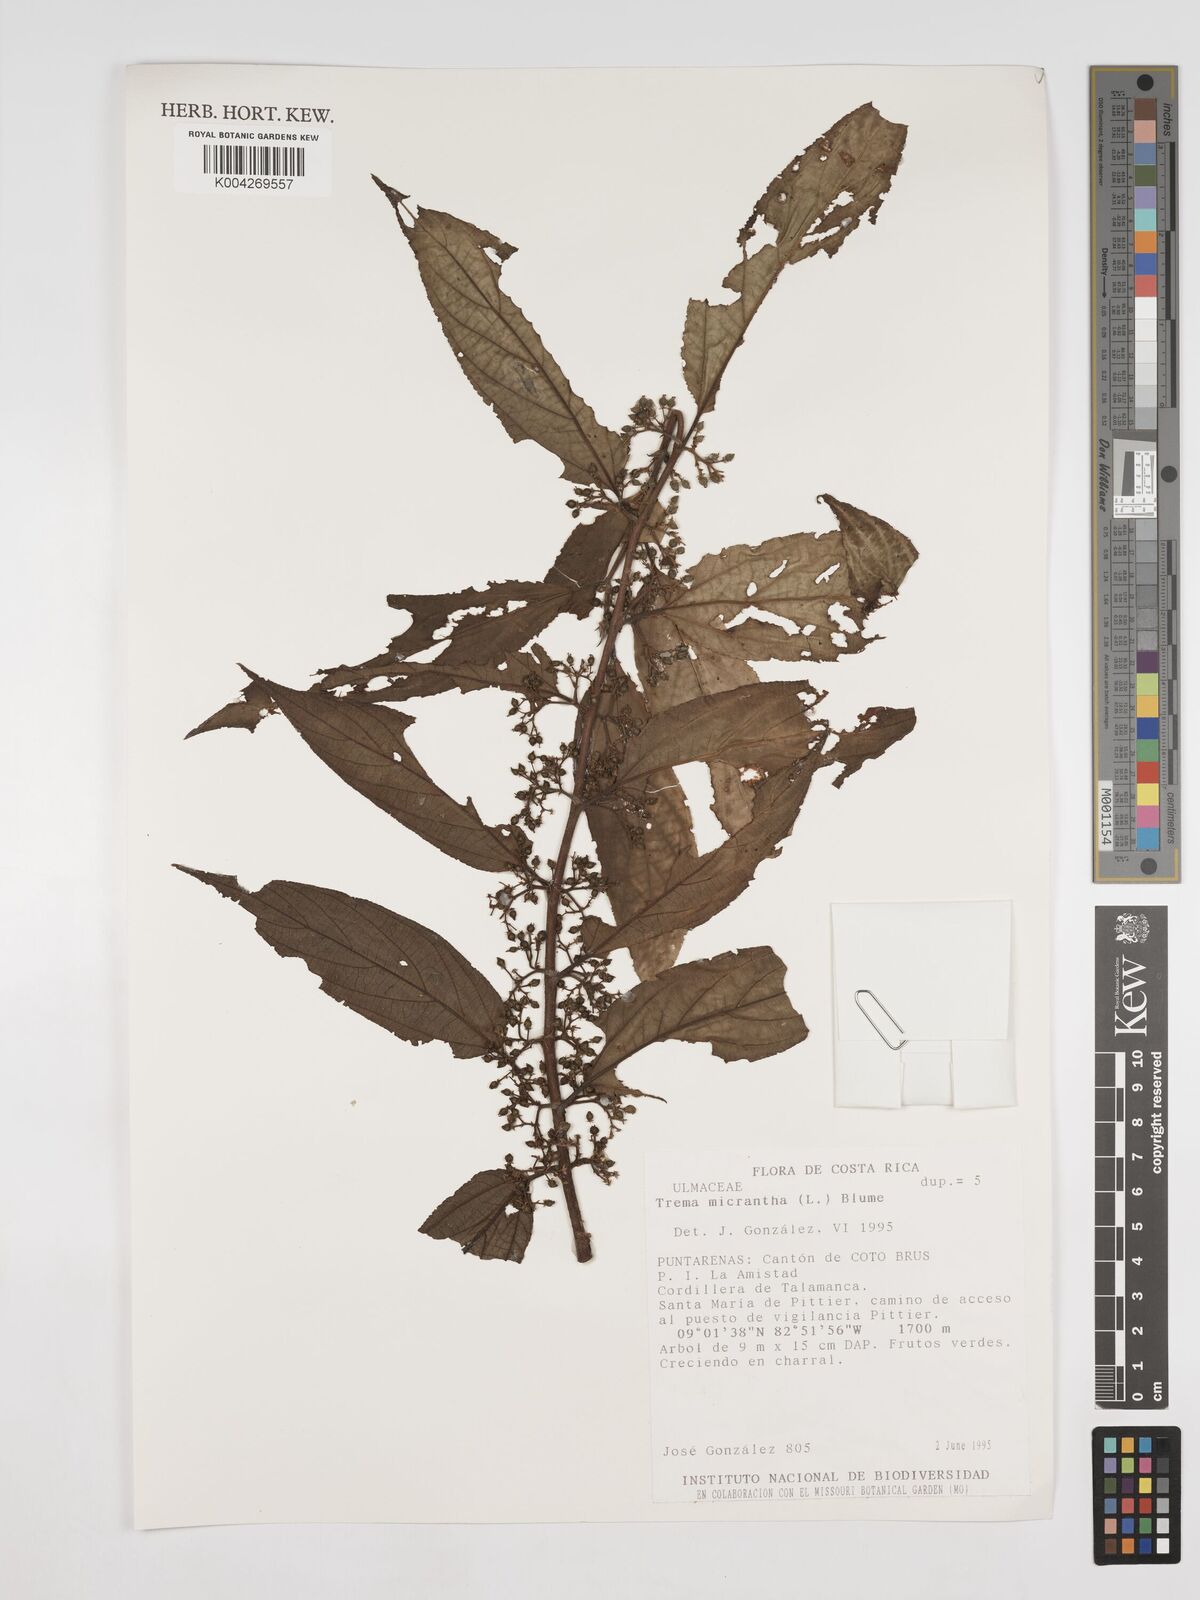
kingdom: Plantae
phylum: Tracheophyta
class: Magnoliopsida
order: Rosales
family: Cannabaceae
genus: Trema
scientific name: Trema micranthum
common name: Jamaican nettletree
